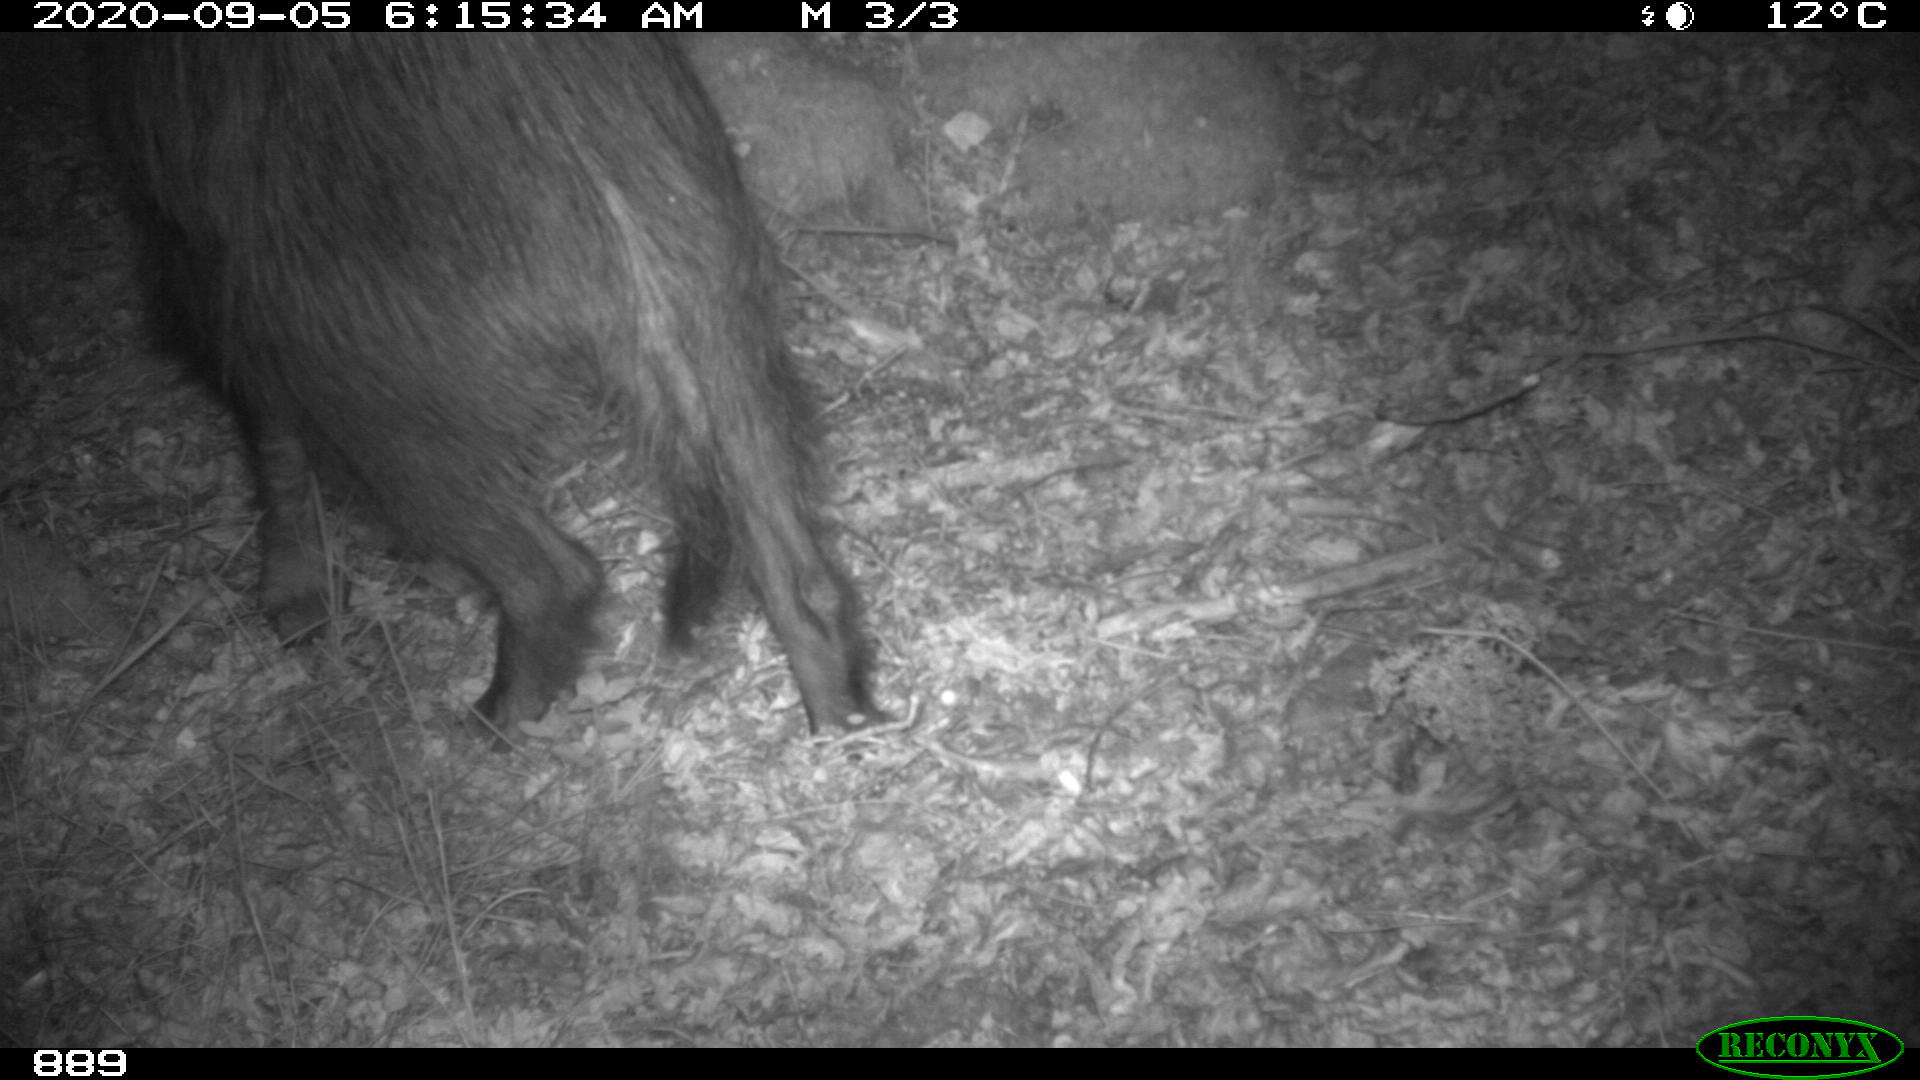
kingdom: Animalia
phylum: Chordata
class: Mammalia
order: Artiodactyla
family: Suidae
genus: Sus
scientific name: Sus scrofa
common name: Wild boar
